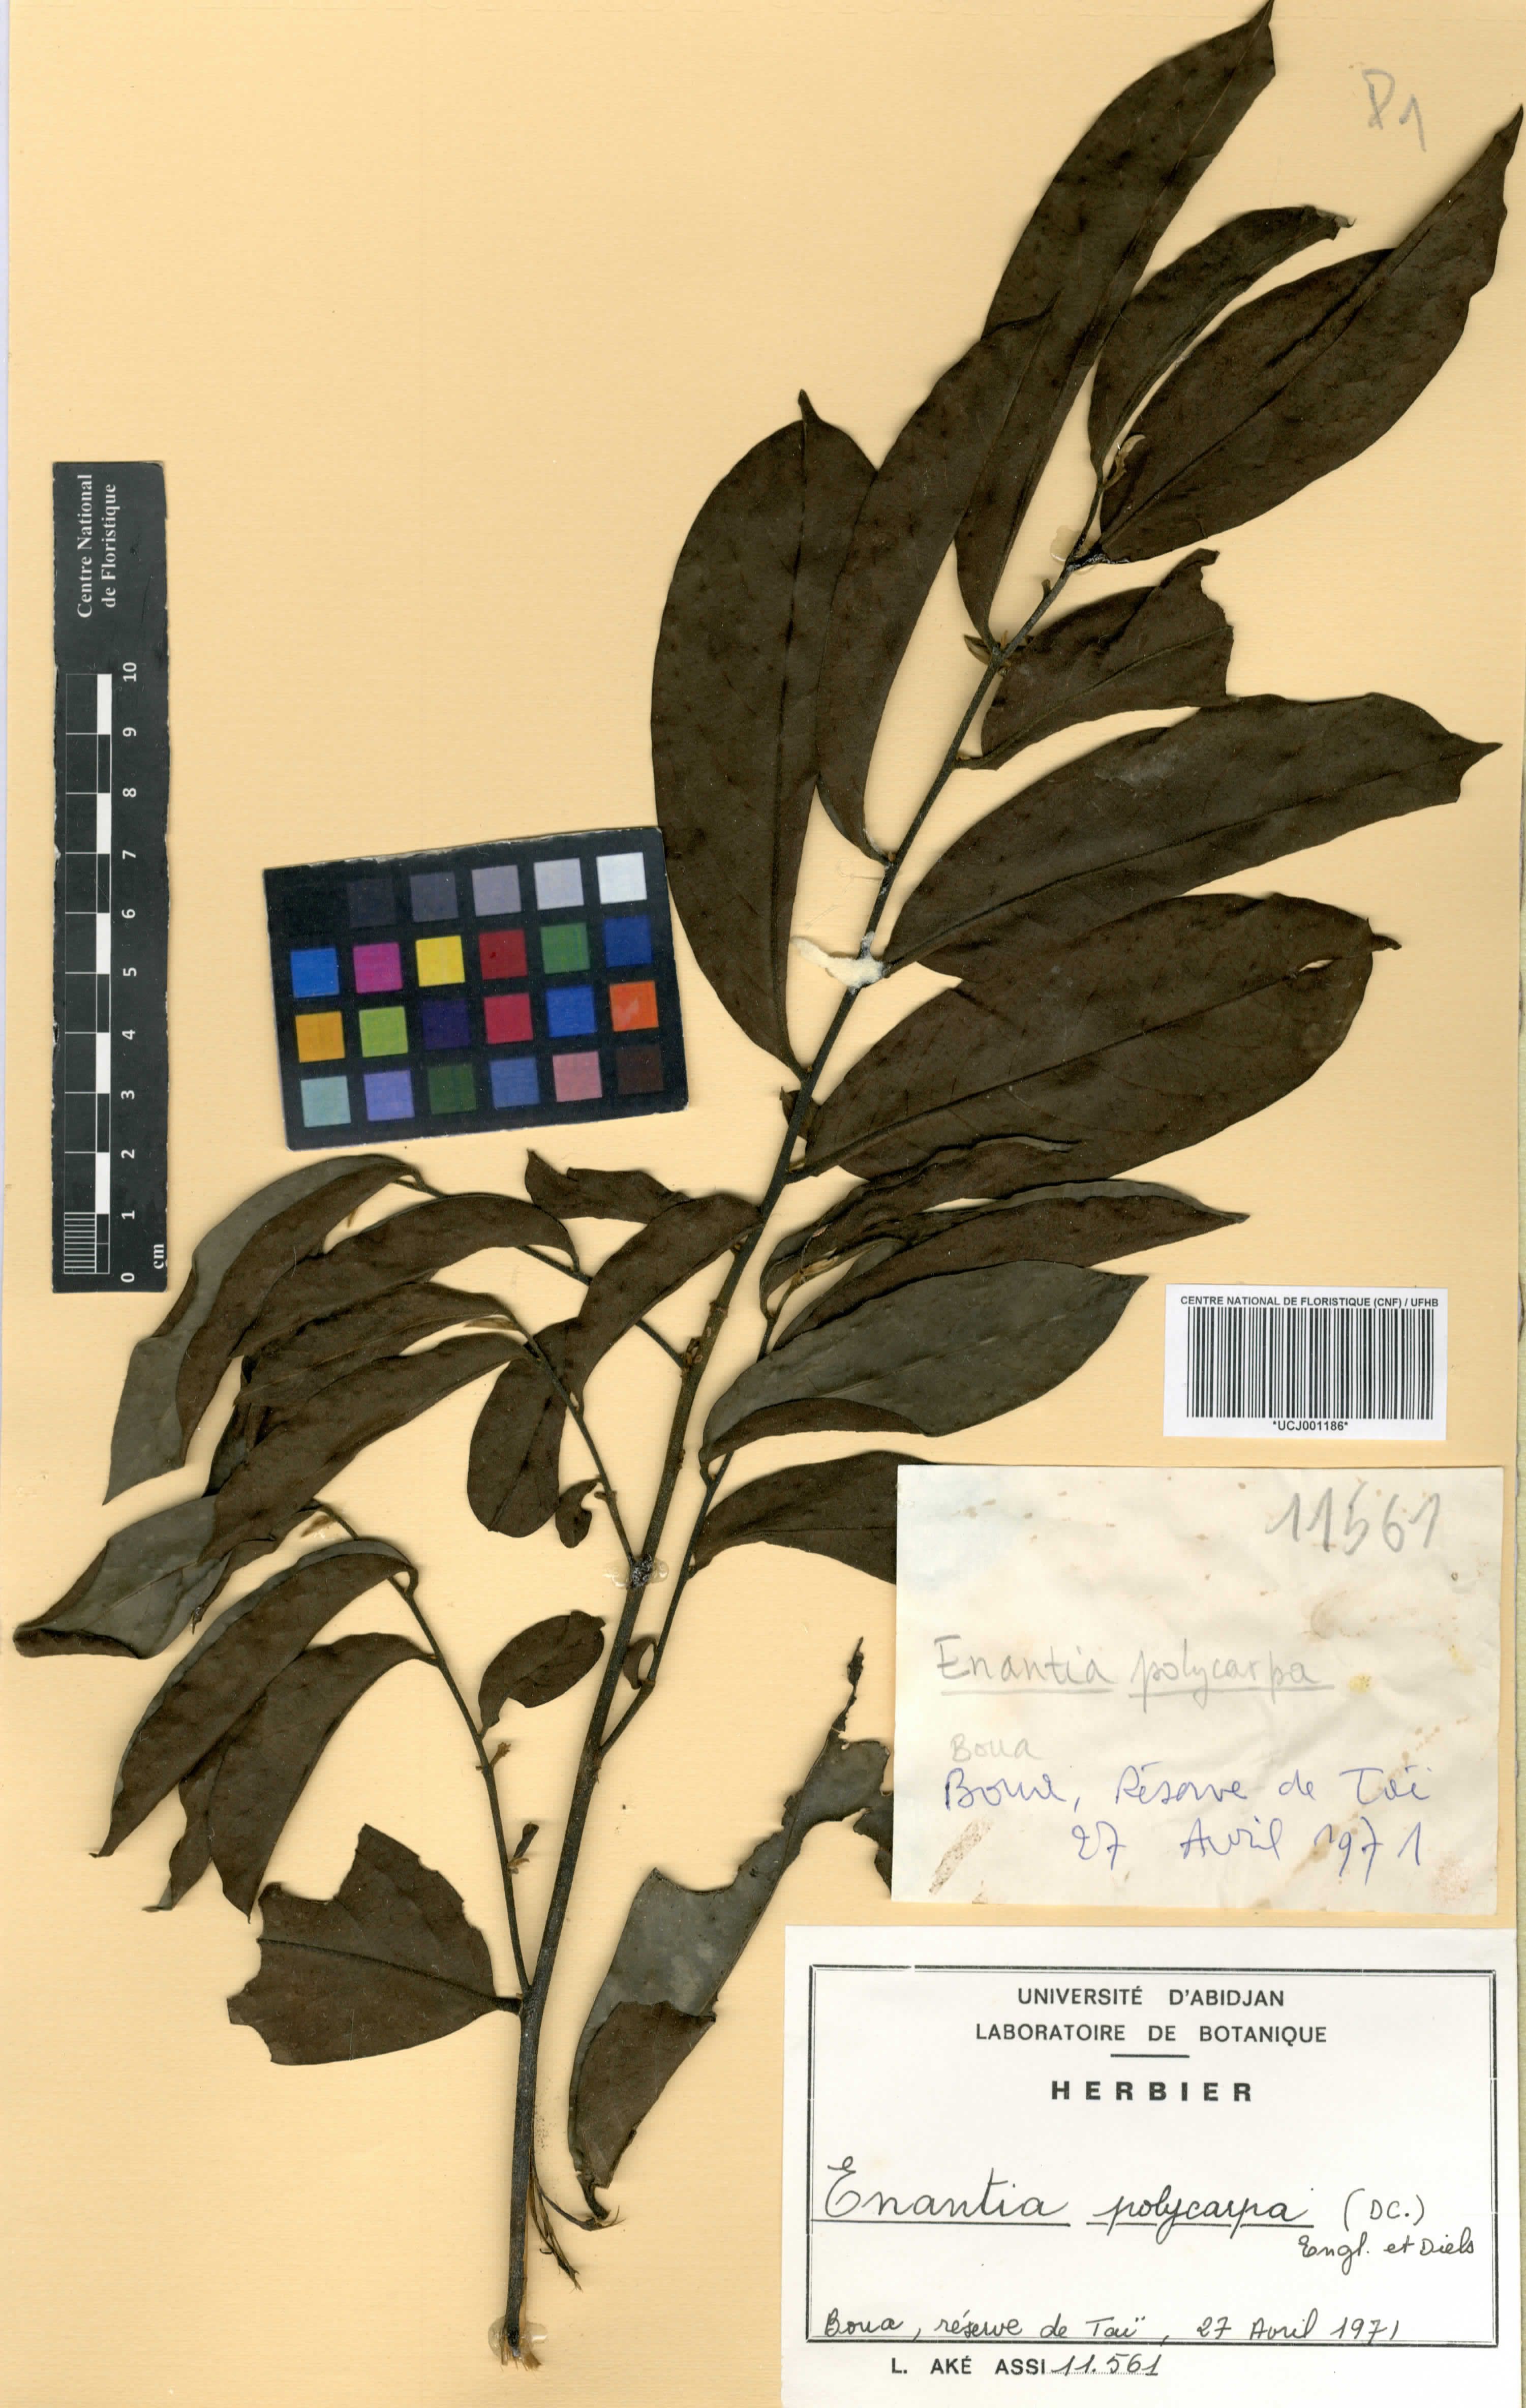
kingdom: Plantae
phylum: Tracheophyta
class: Magnoliopsida
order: Magnoliales
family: Annonaceae
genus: Annickia
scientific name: Annickia polycarpa
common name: African yellowwood
